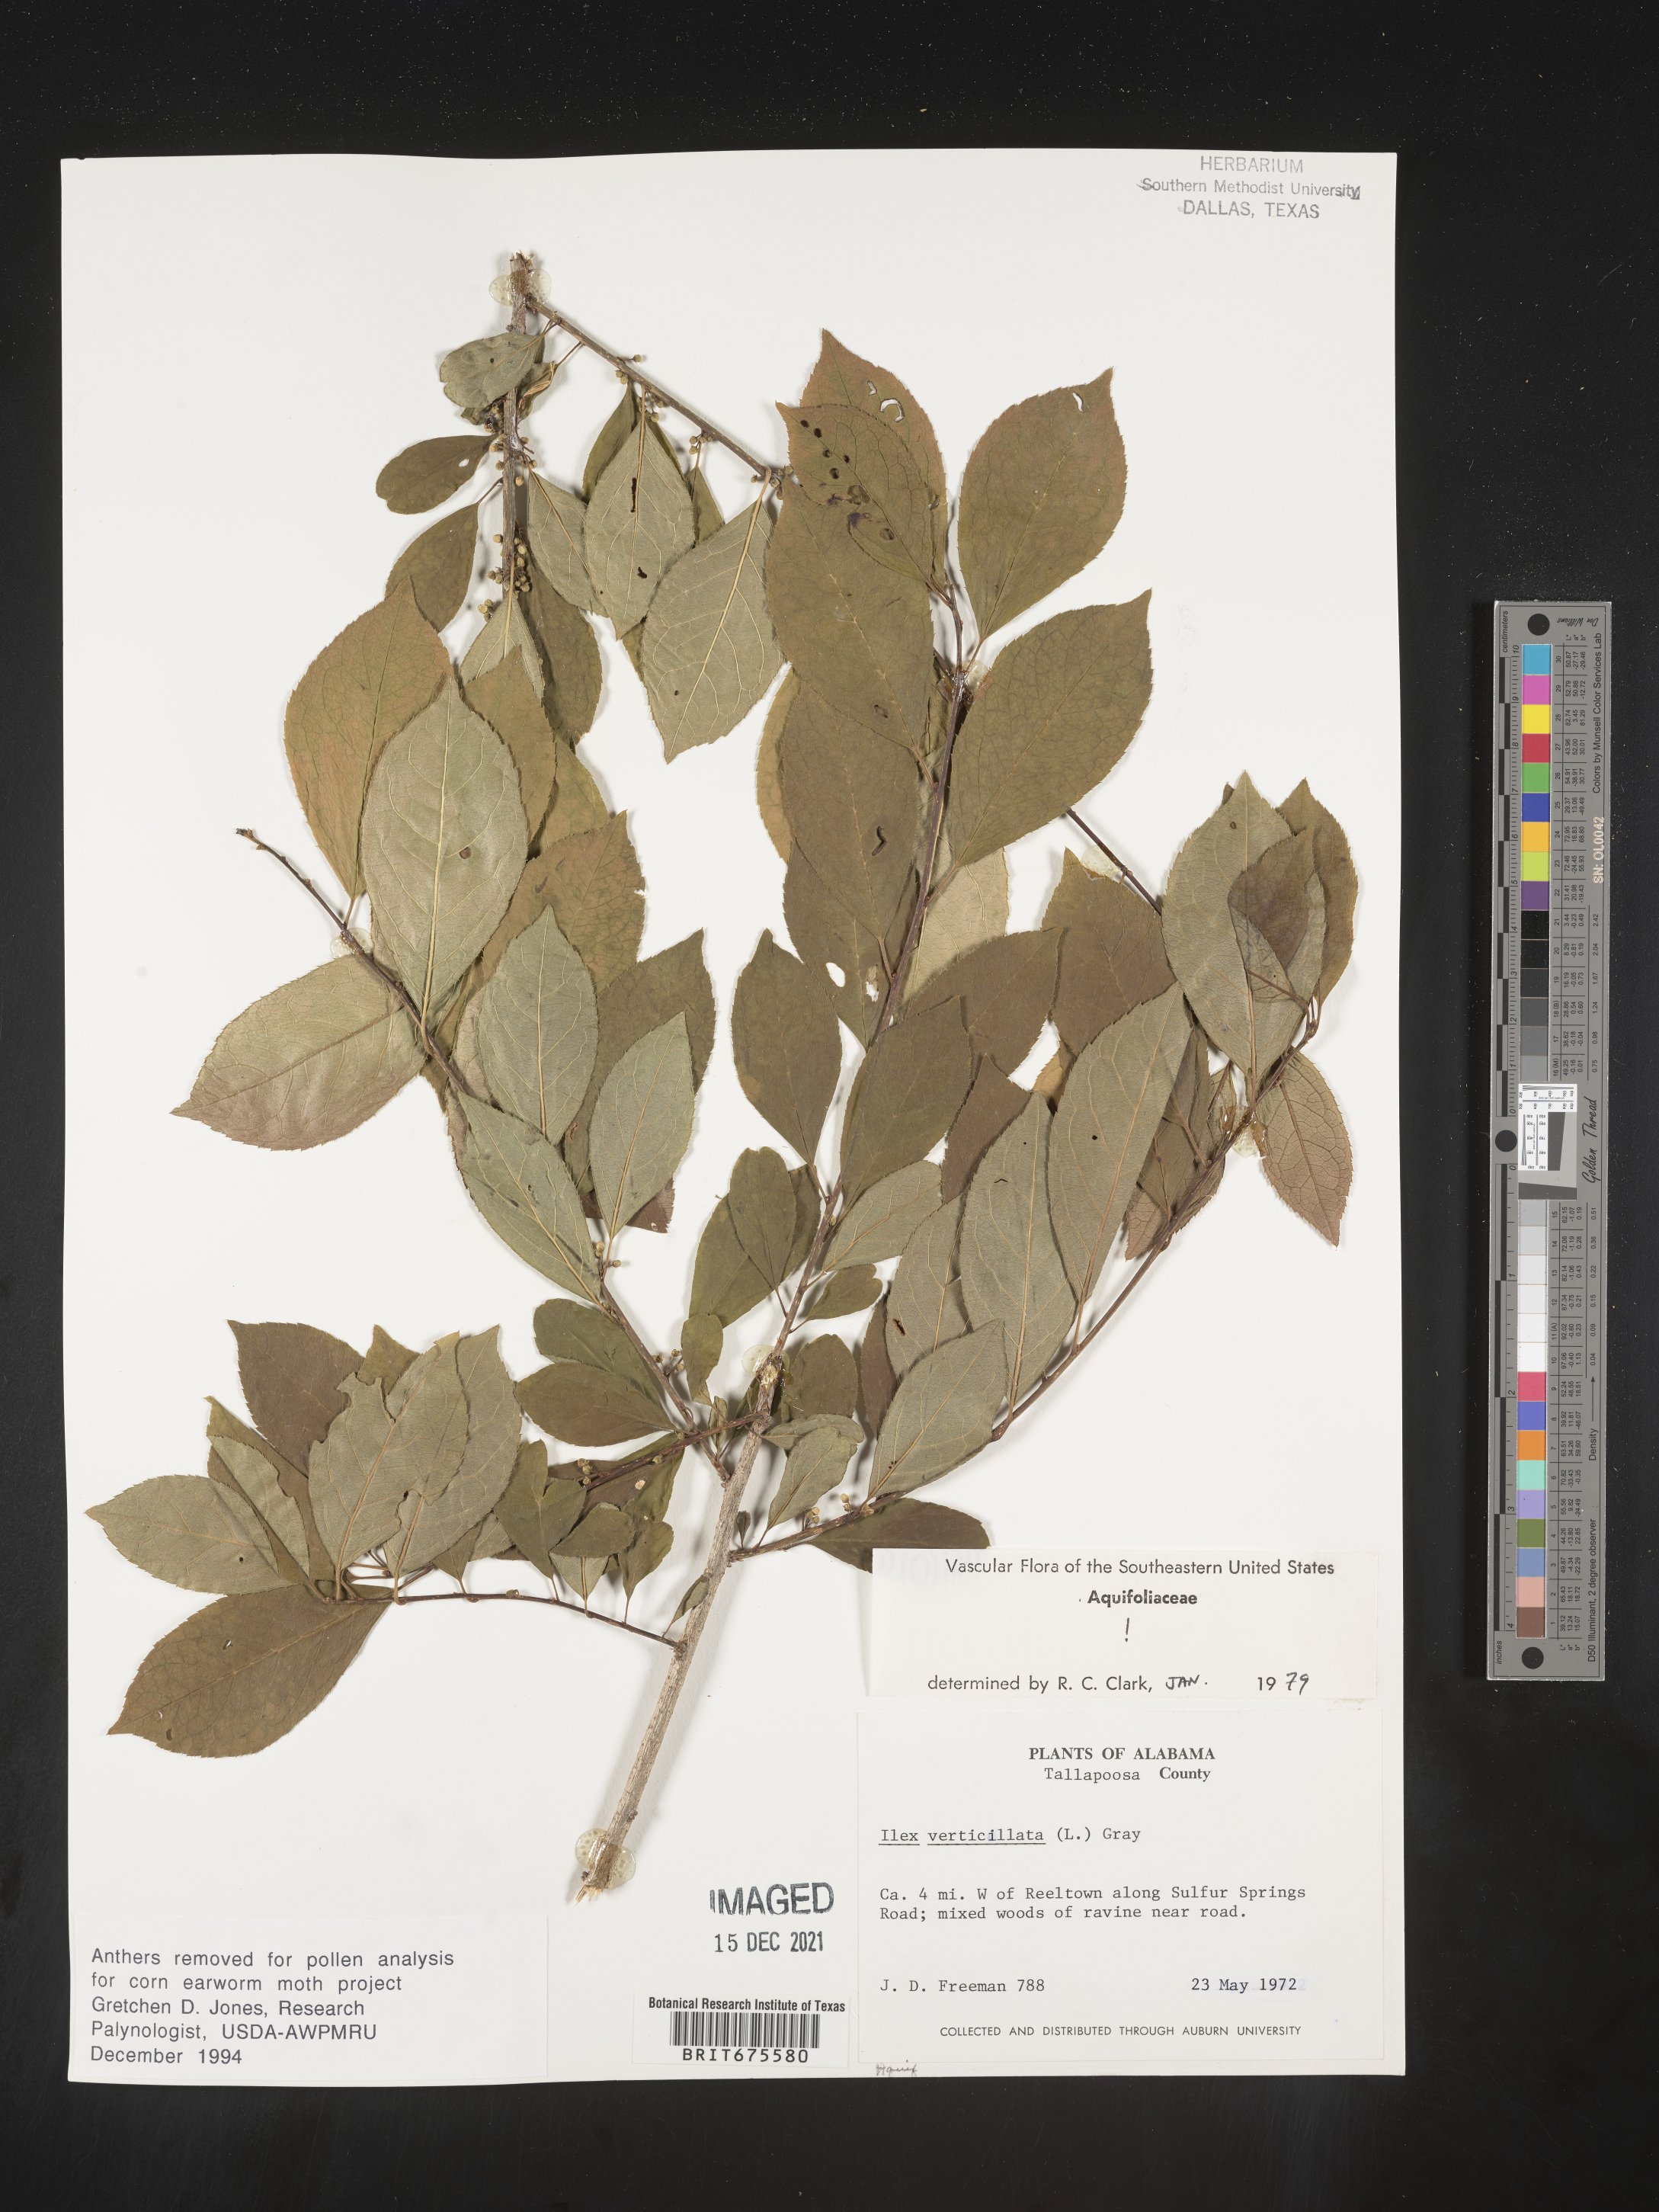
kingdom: Plantae
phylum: Tracheophyta
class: Magnoliopsida
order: Aquifoliales
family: Aquifoliaceae
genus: Ilex
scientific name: Ilex verticillata
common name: Virginia winterberry
